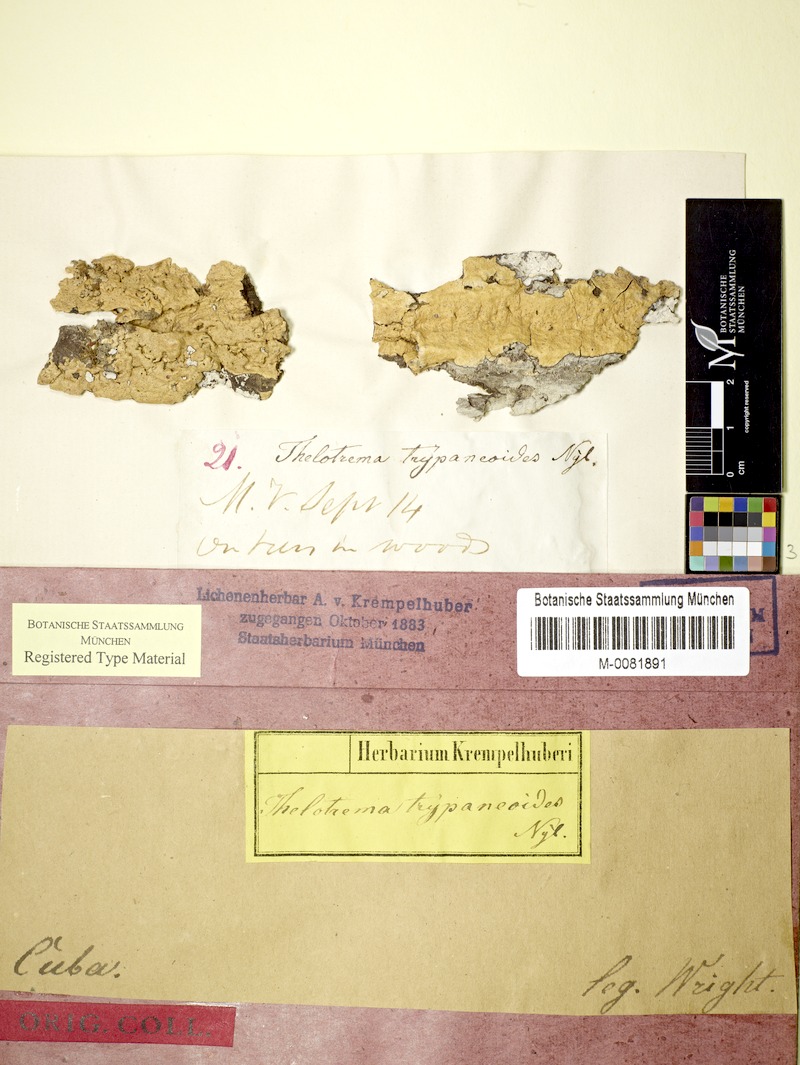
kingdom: Fungi
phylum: Ascomycota
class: Lecanoromycetes
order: Ostropales
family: Graphidaceae
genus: Wirthiotrema
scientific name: Wirthiotrema trypaneoides
